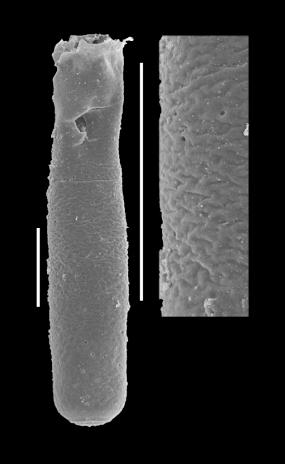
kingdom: Animalia
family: Conochitinidae
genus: Conochitina
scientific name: Conochitina
